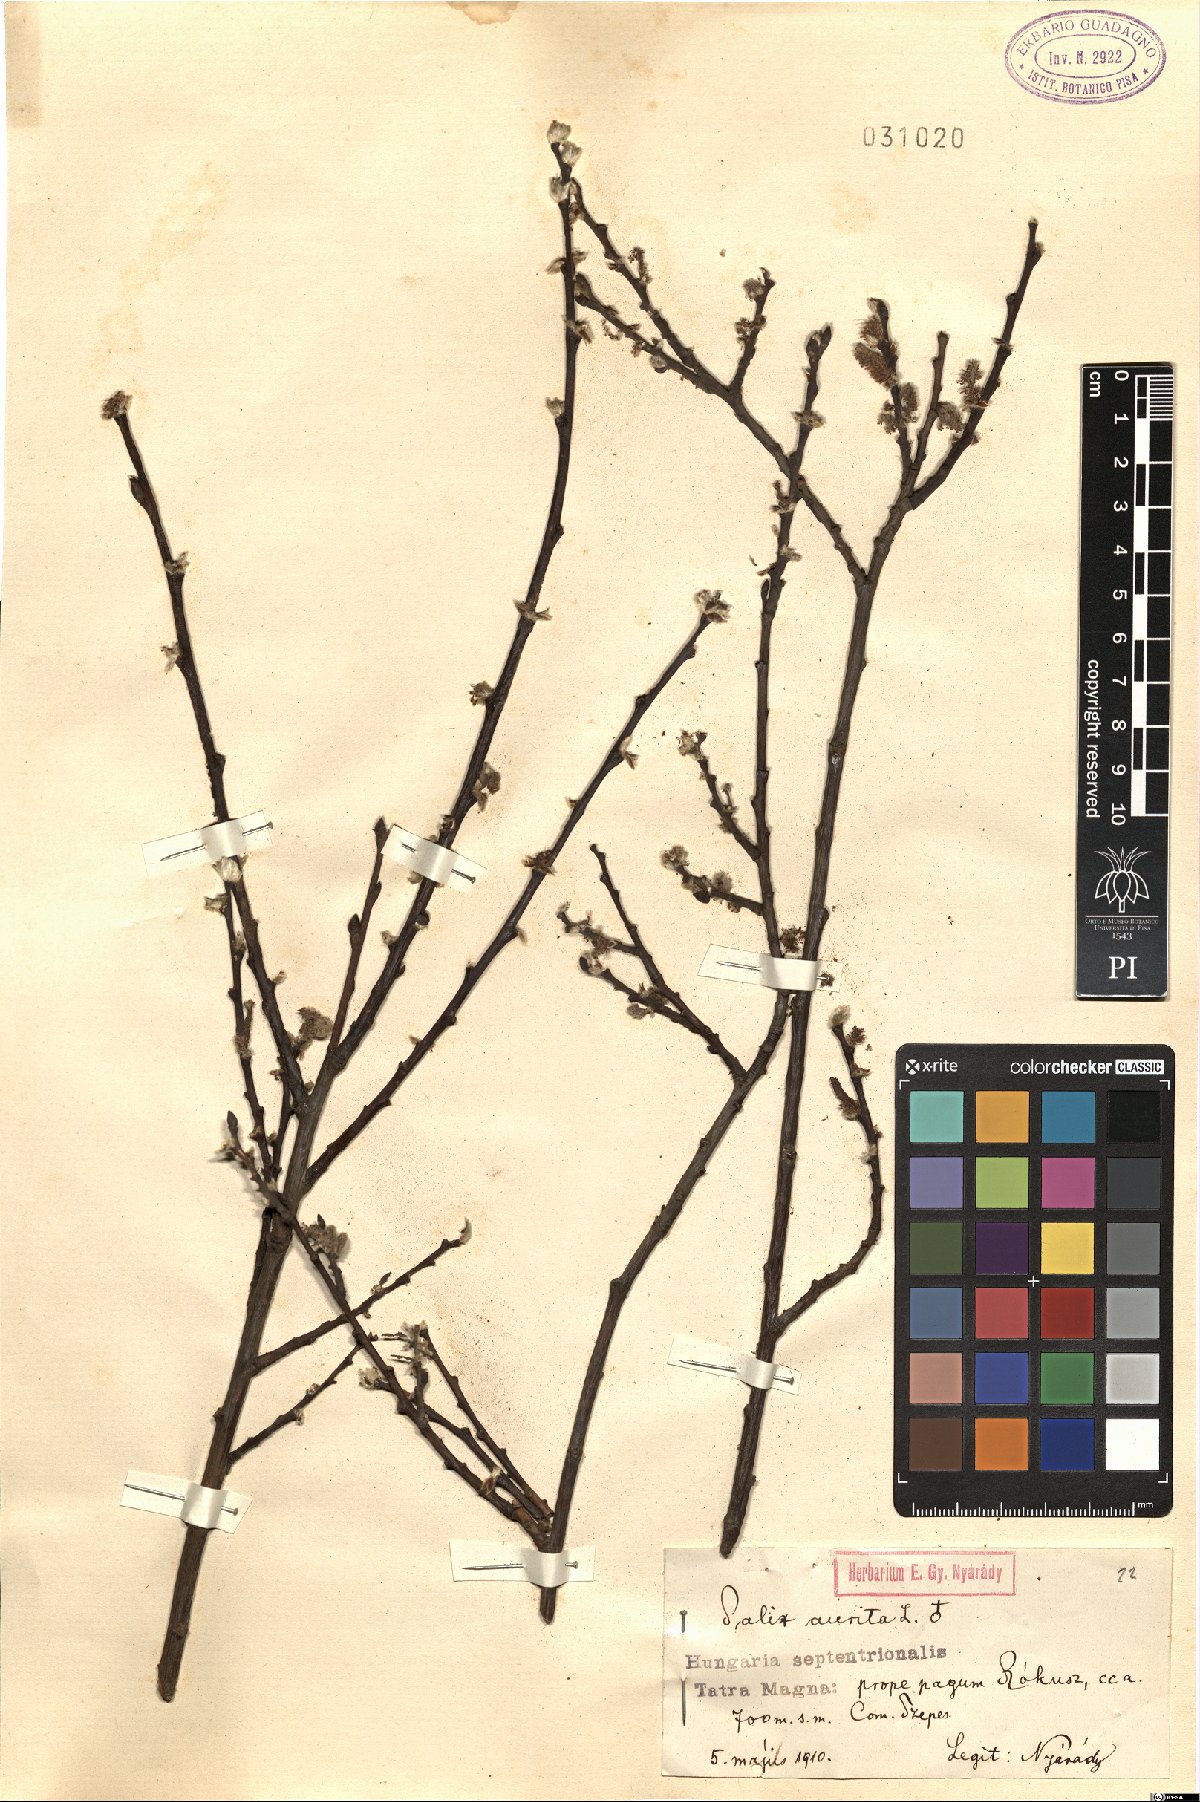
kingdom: Plantae
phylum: Tracheophyta
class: Magnoliopsida
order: Malpighiales
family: Salicaceae
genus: Salix
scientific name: Salix aurita
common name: Eared willow
